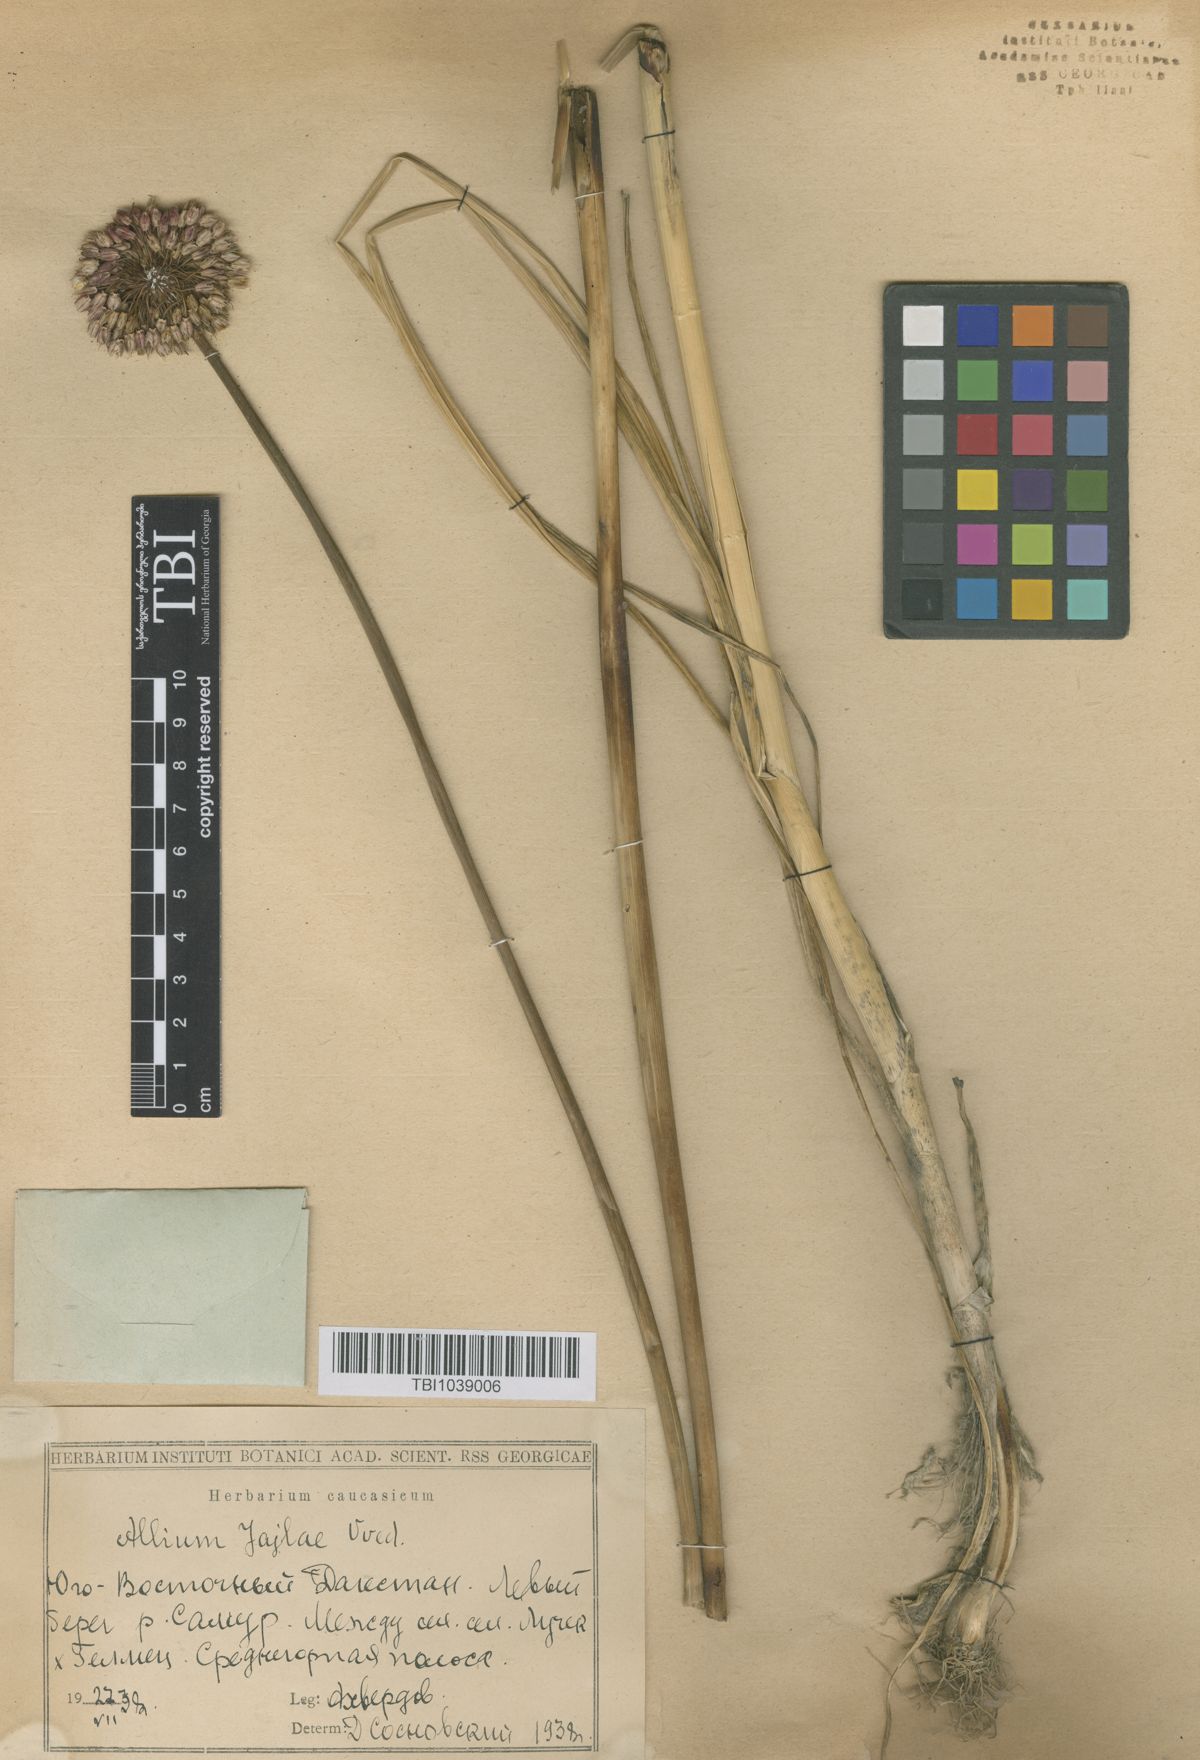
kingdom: Plantae
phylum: Tracheophyta
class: Liliopsida
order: Asparagales
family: Amaryllidaceae
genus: Allium
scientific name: Allium rotundum
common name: Sand leek
